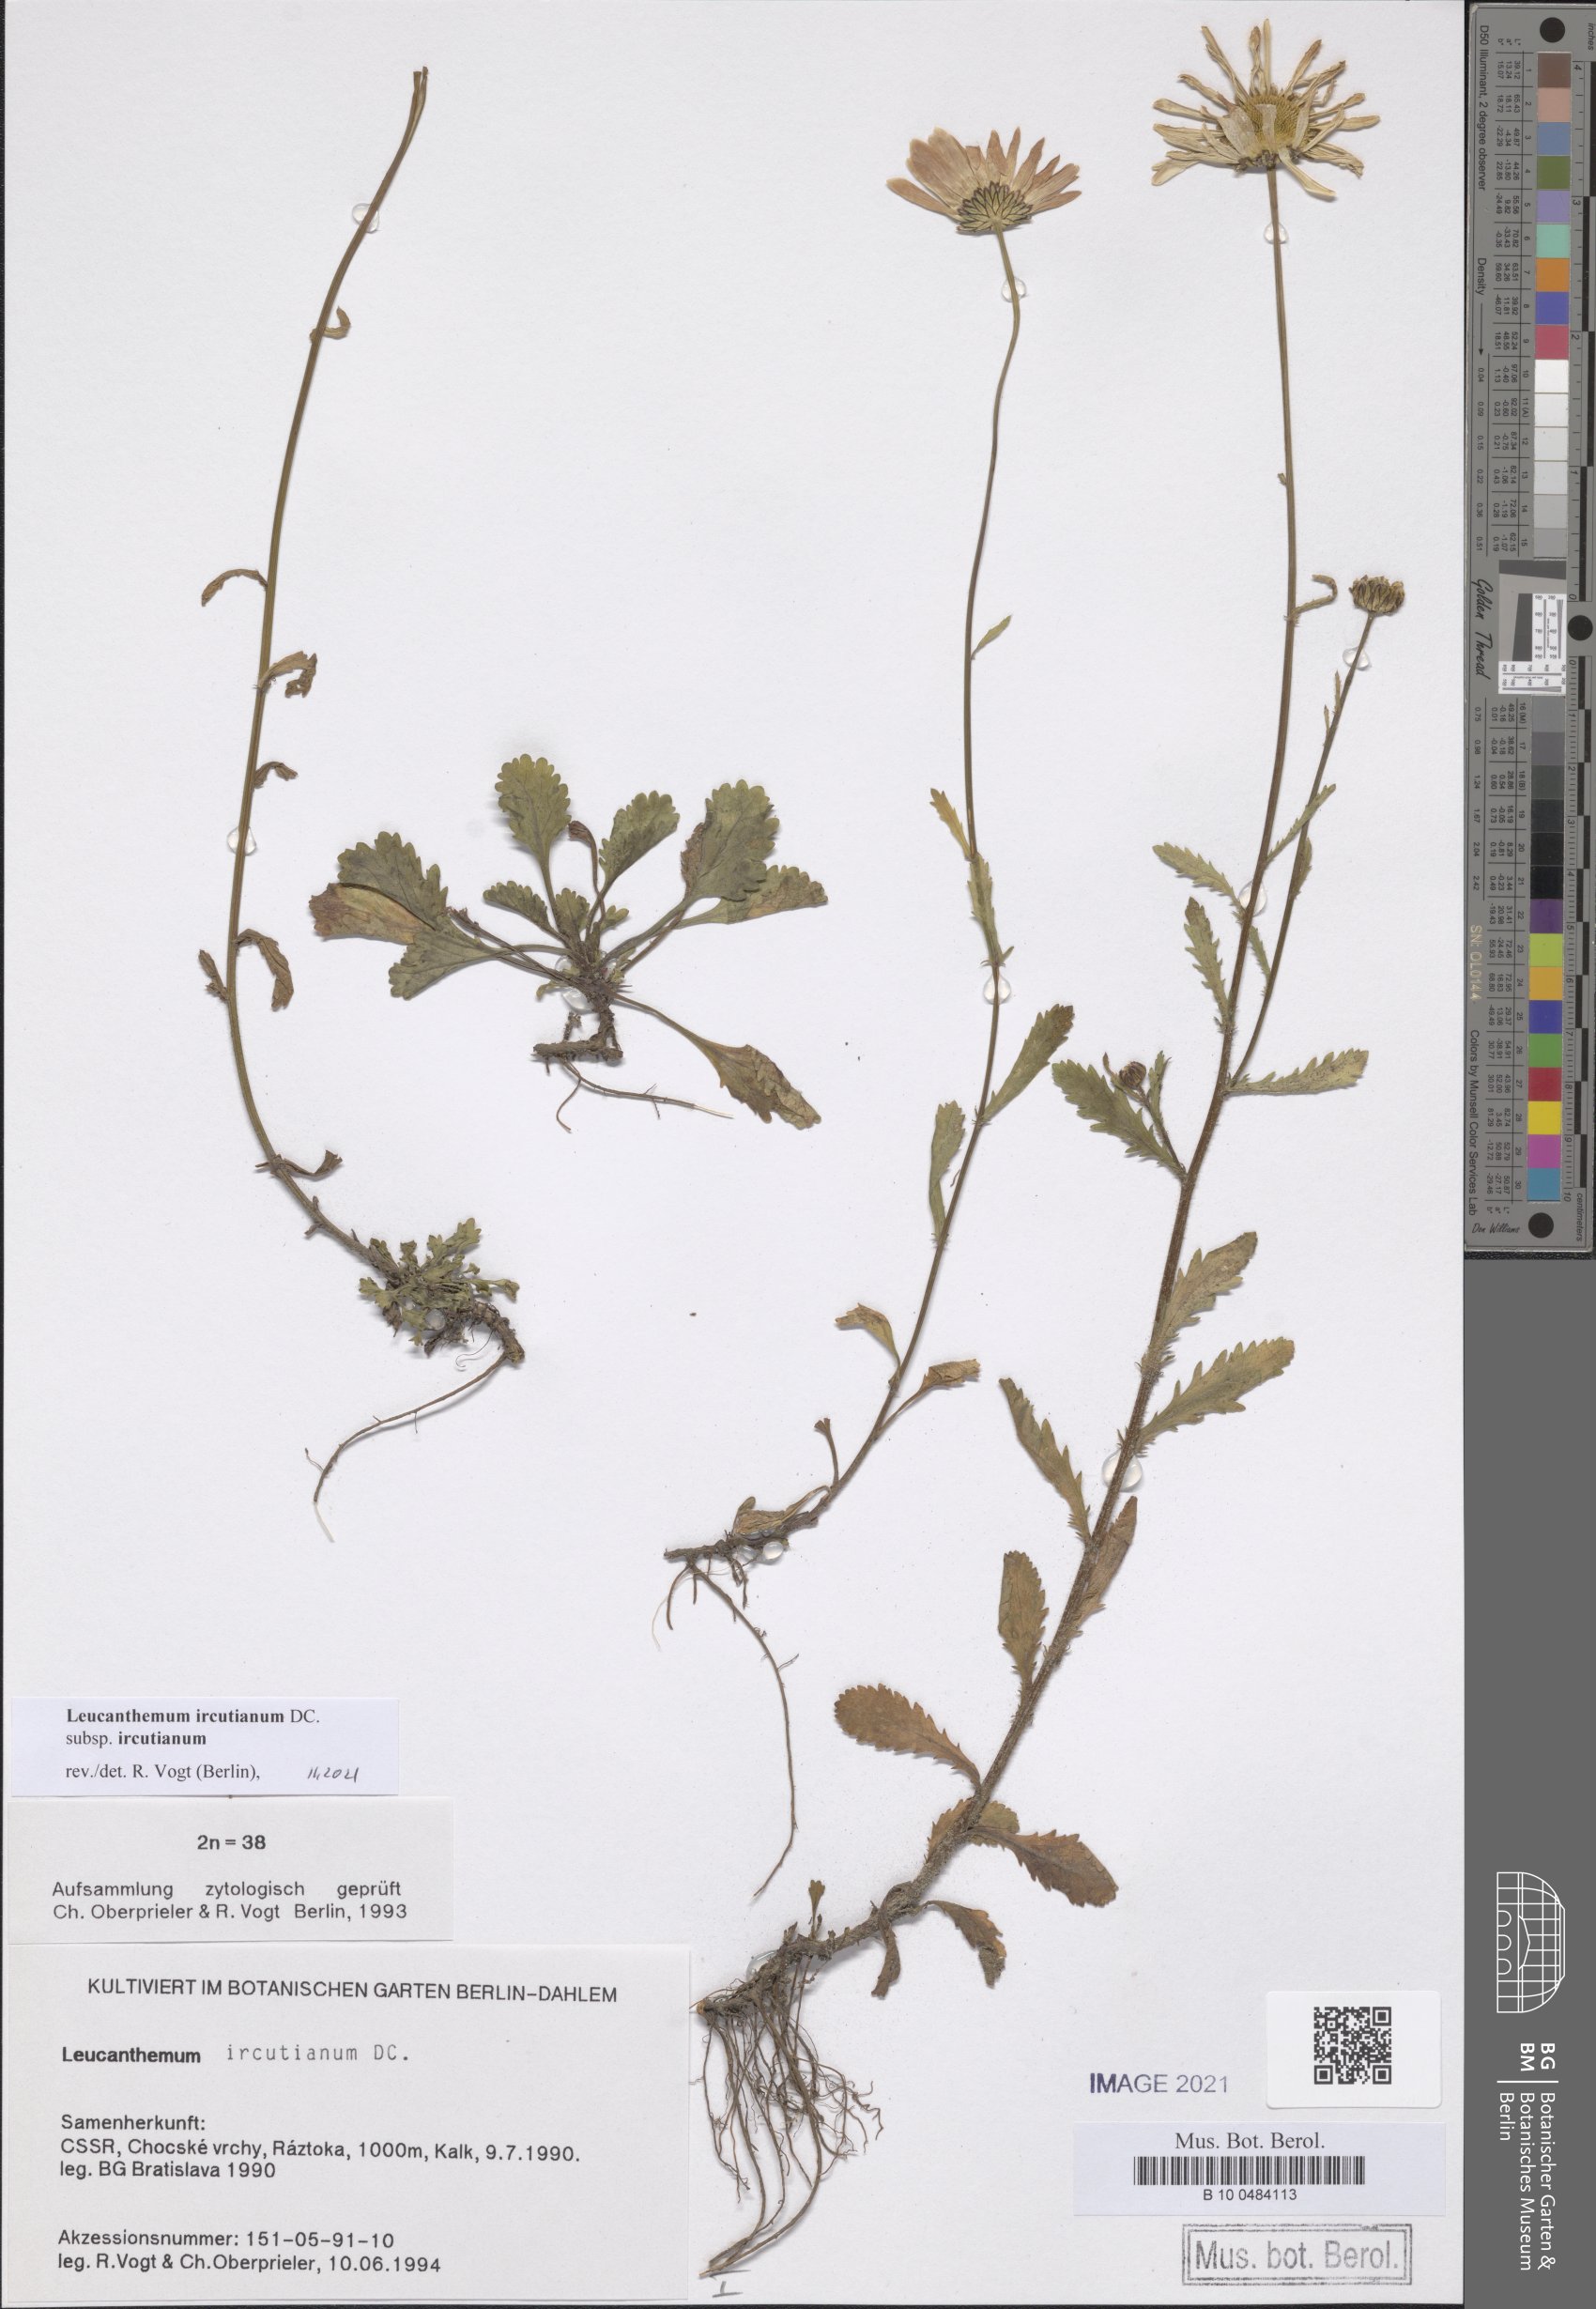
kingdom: Plantae
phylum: Tracheophyta
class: Magnoliopsida
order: Asterales
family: Asteraceae
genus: Leucanthemum
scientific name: Leucanthemum ircutianum
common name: Daisy
